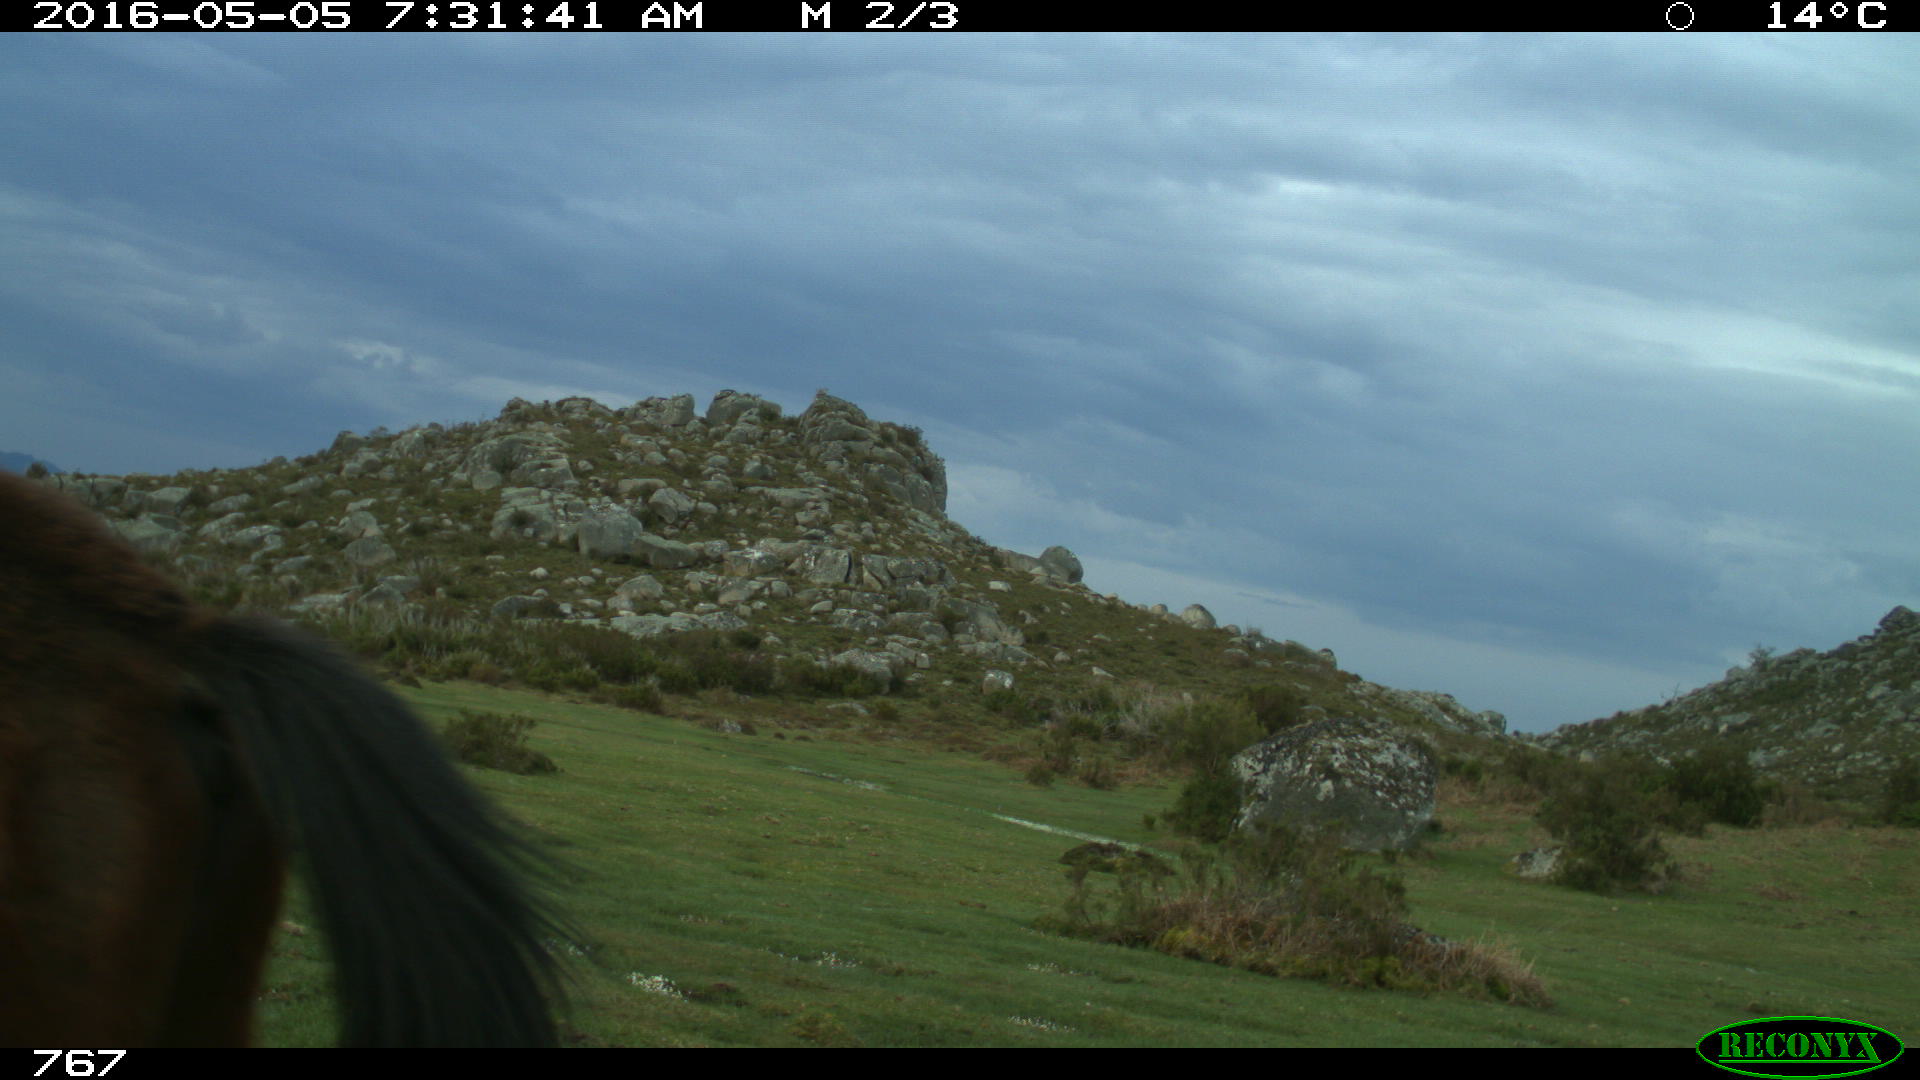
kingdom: Animalia
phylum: Chordata
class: Mammalia
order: Perissodactyla
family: Equidae
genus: Equus
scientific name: Equus caballus
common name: Horse
